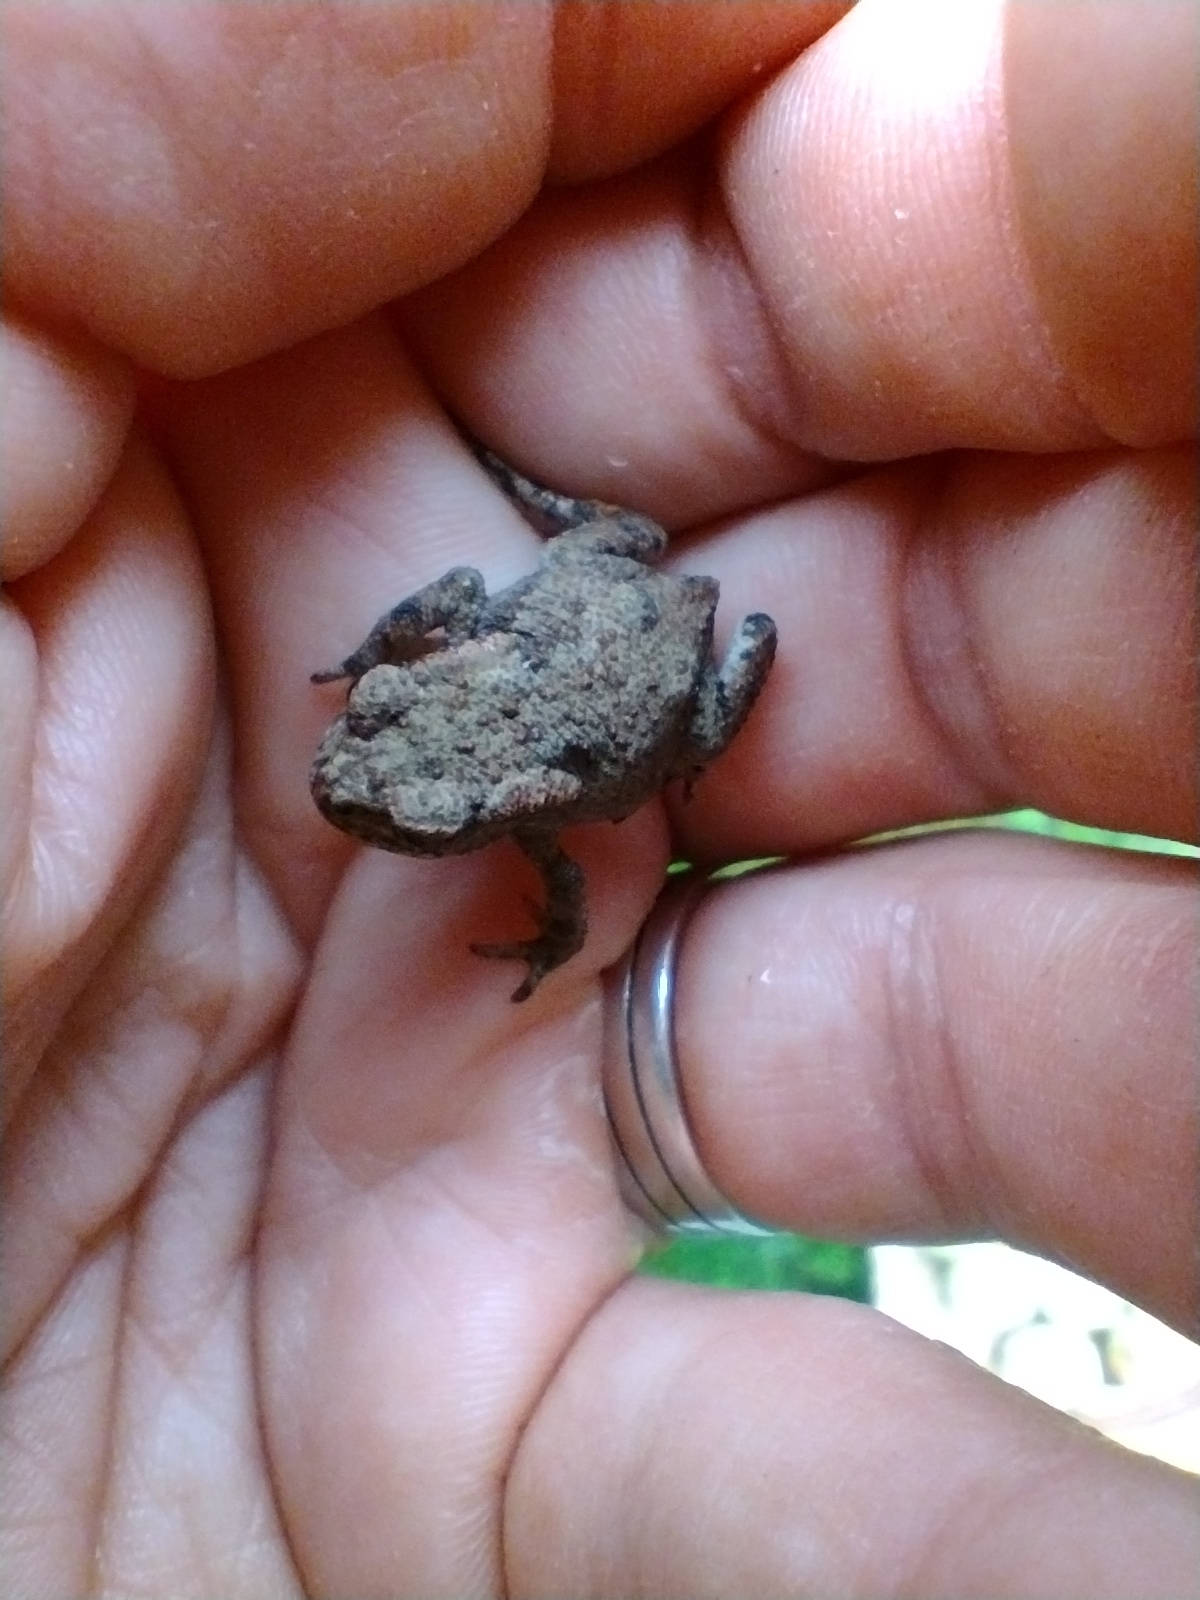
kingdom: Animalia
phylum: Chordata
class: Amphibia
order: Anura
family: Bufonidae
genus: Bufo
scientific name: Bufo bufo
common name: Skrubtudse
